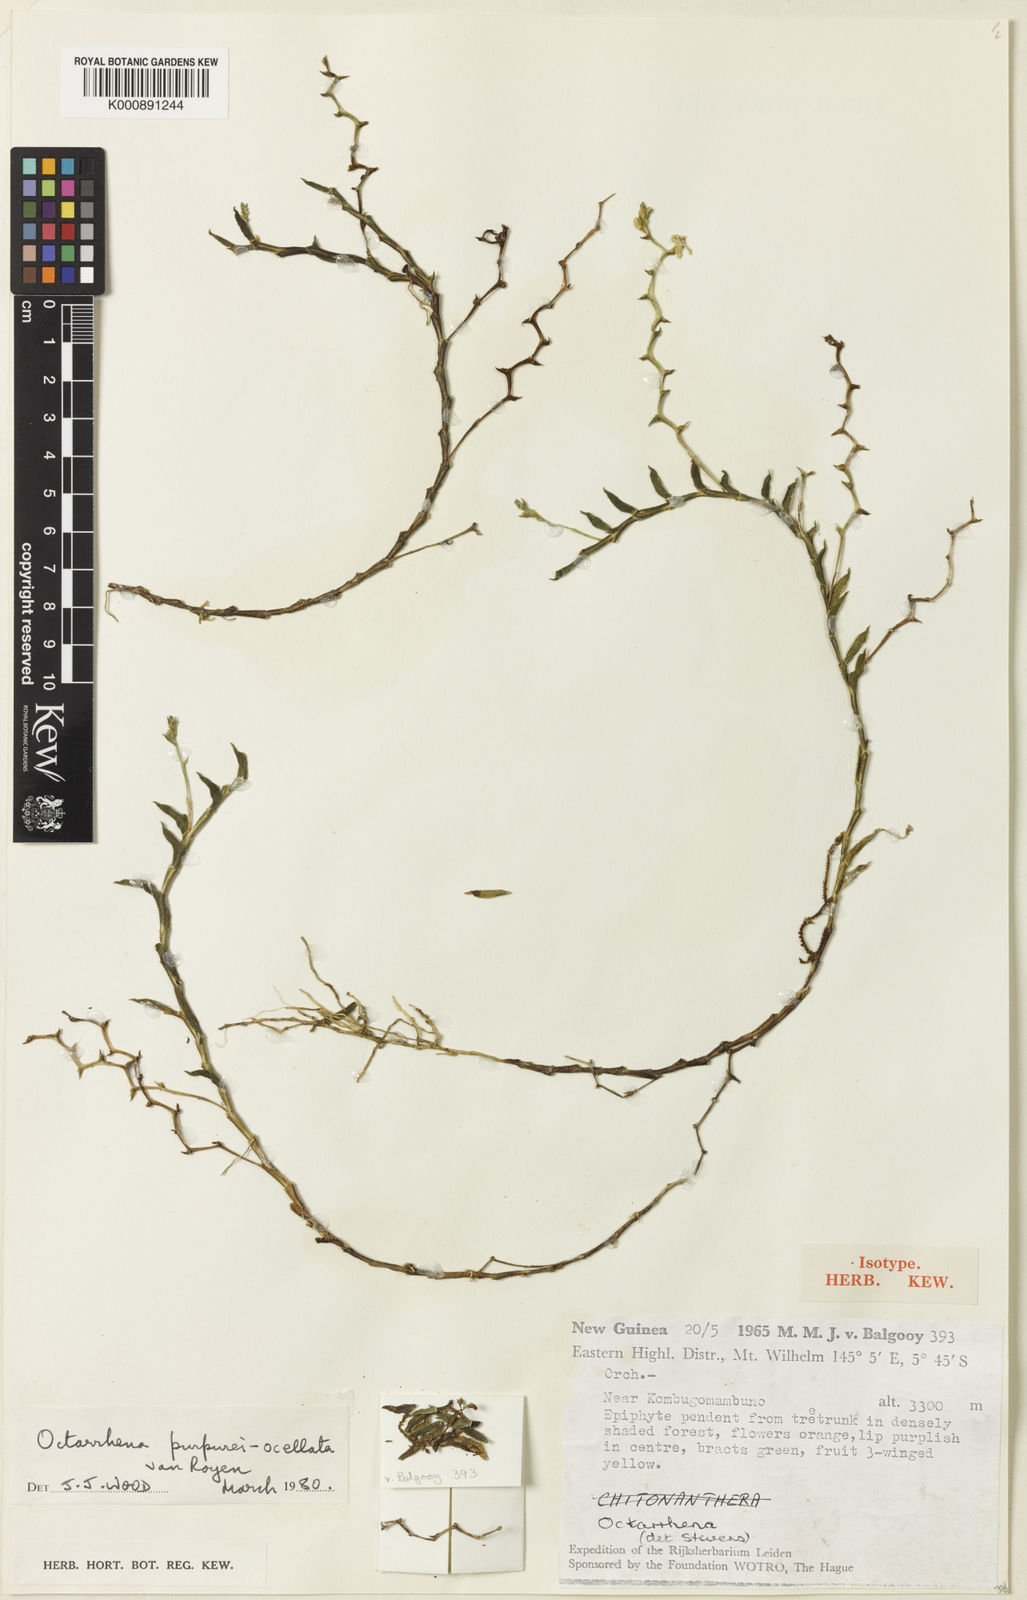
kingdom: Plantae
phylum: Tracheophyta
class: Liliopsida
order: Asparagales
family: Orchidaceae
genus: Octarrhena
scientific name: Octarrhena purpureiocellata
